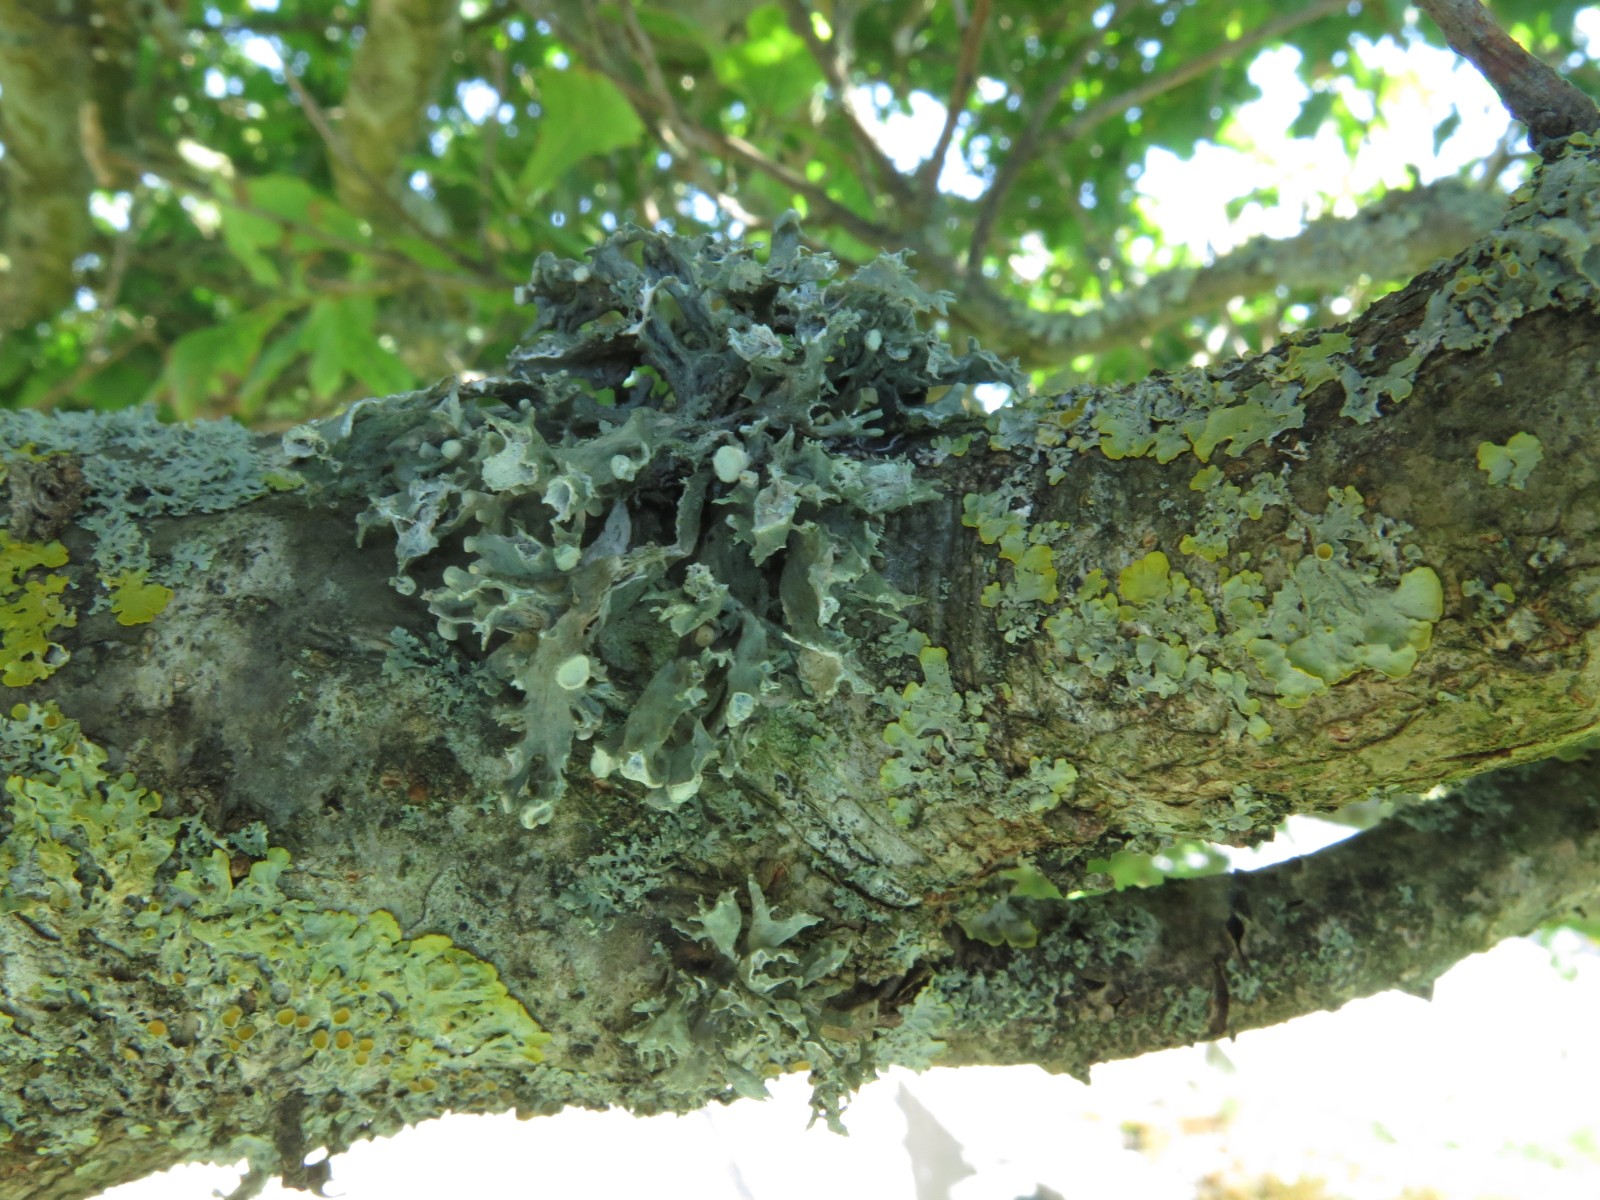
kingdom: Fungi
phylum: Ascomycota
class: Lecanoromycetes
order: Lecanorales
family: Ramalinaceae
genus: Ramalina
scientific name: Ramalina fastigiata
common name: tue-grenlav
